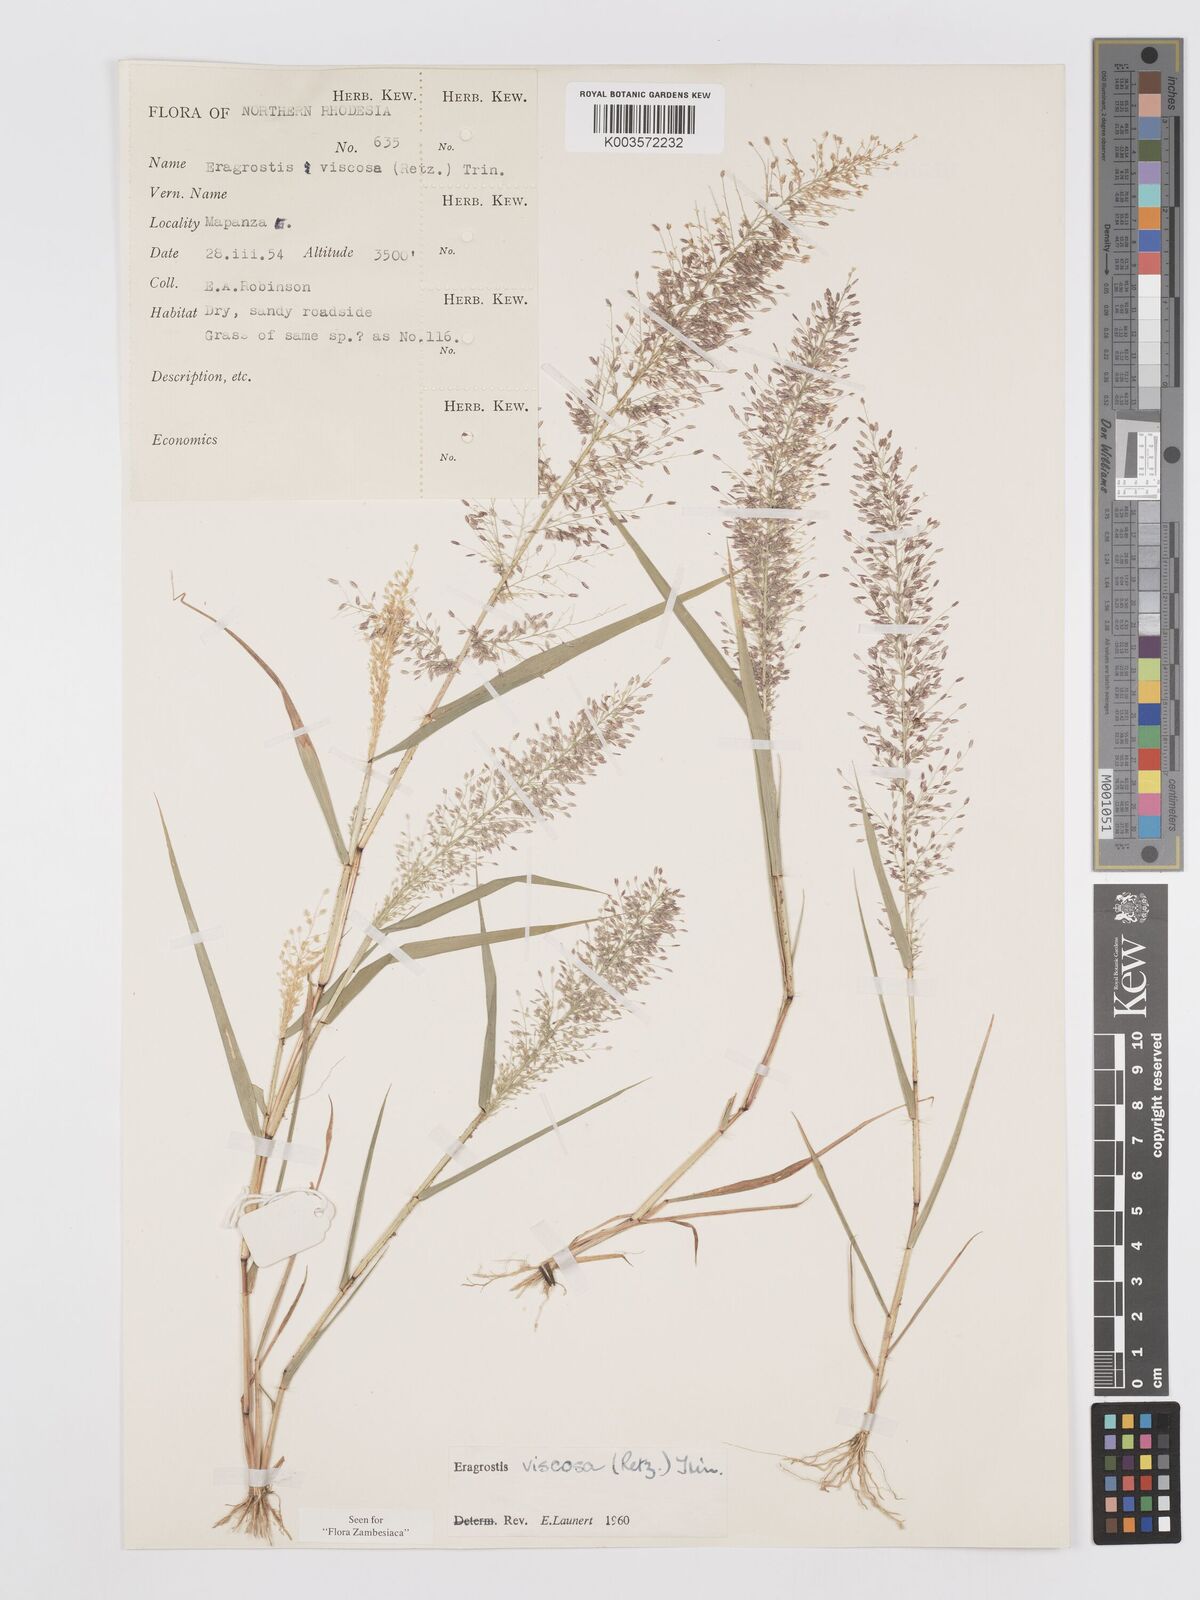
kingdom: Plantae
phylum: Tracheophyta
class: Liliopsida
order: Poales
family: Poaceae
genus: Eragrostis
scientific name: Eragrostis
